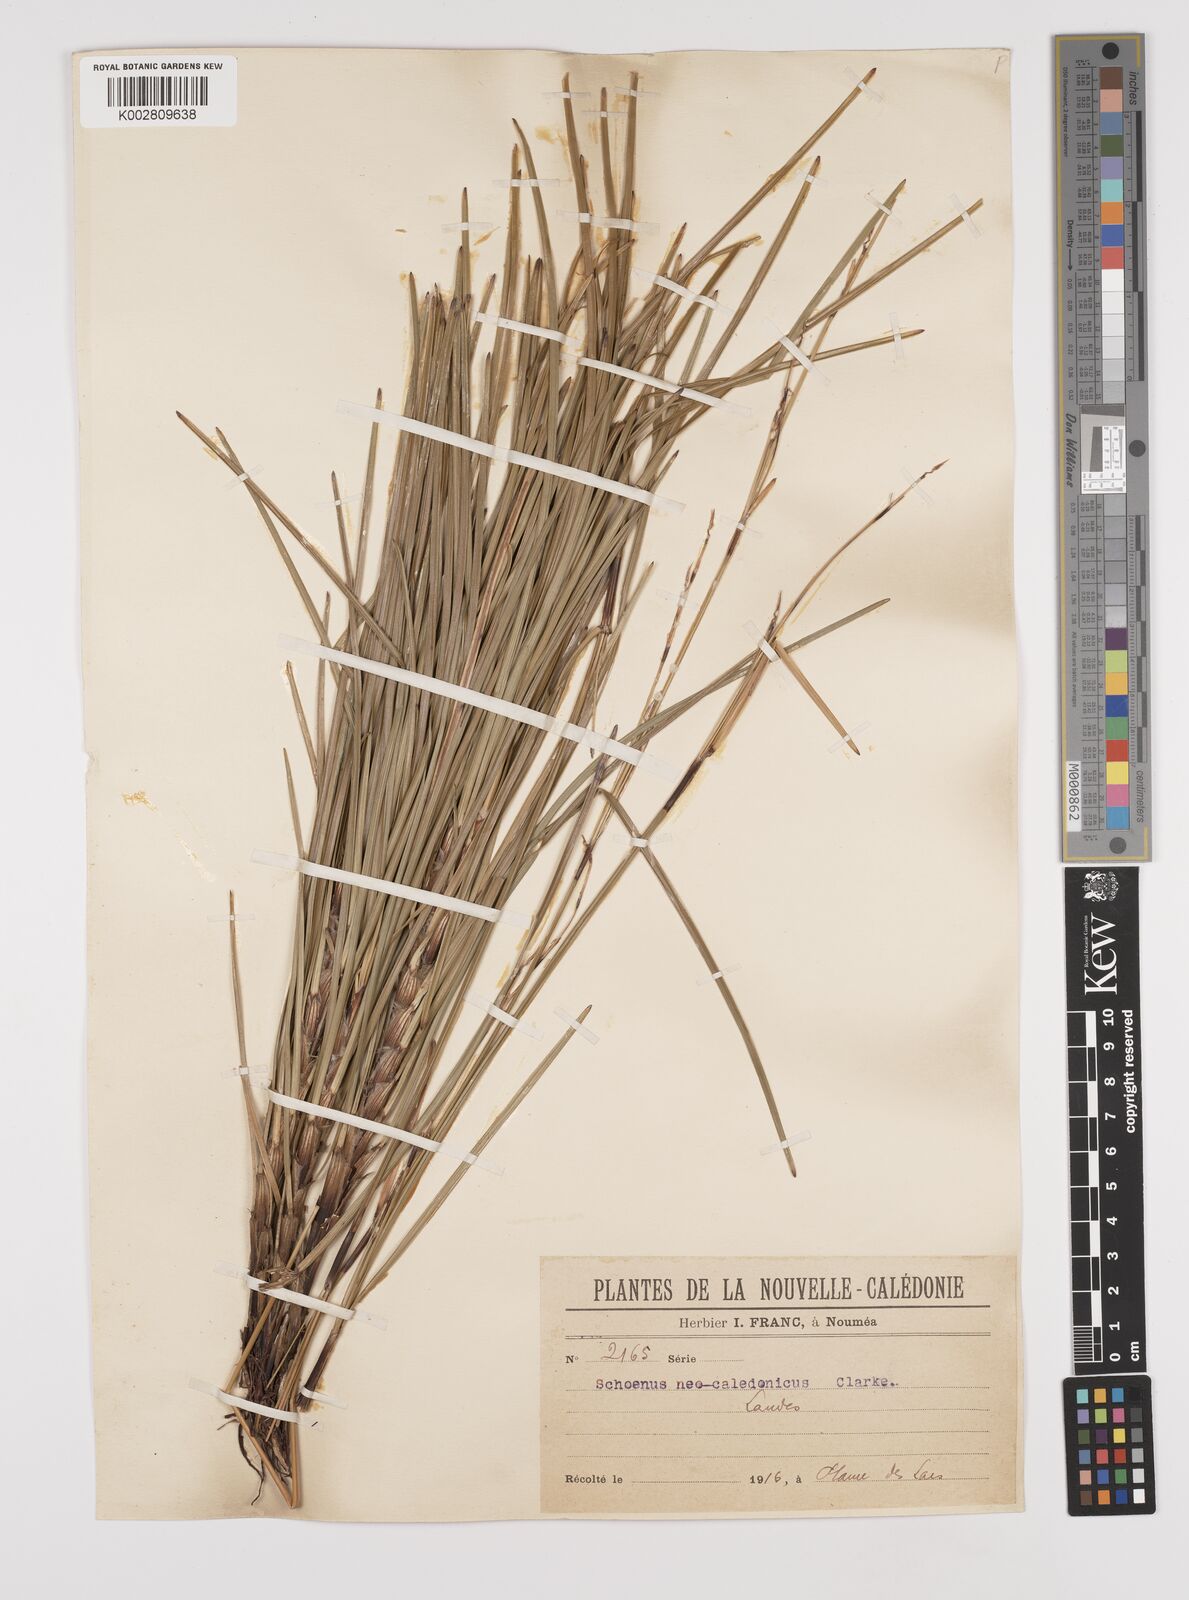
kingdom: Plantae
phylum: Tracheophyta
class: Liliopsida
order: Poales
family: Cyperaceae
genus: Schoenus
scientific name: Schoenus neocaledonicus
